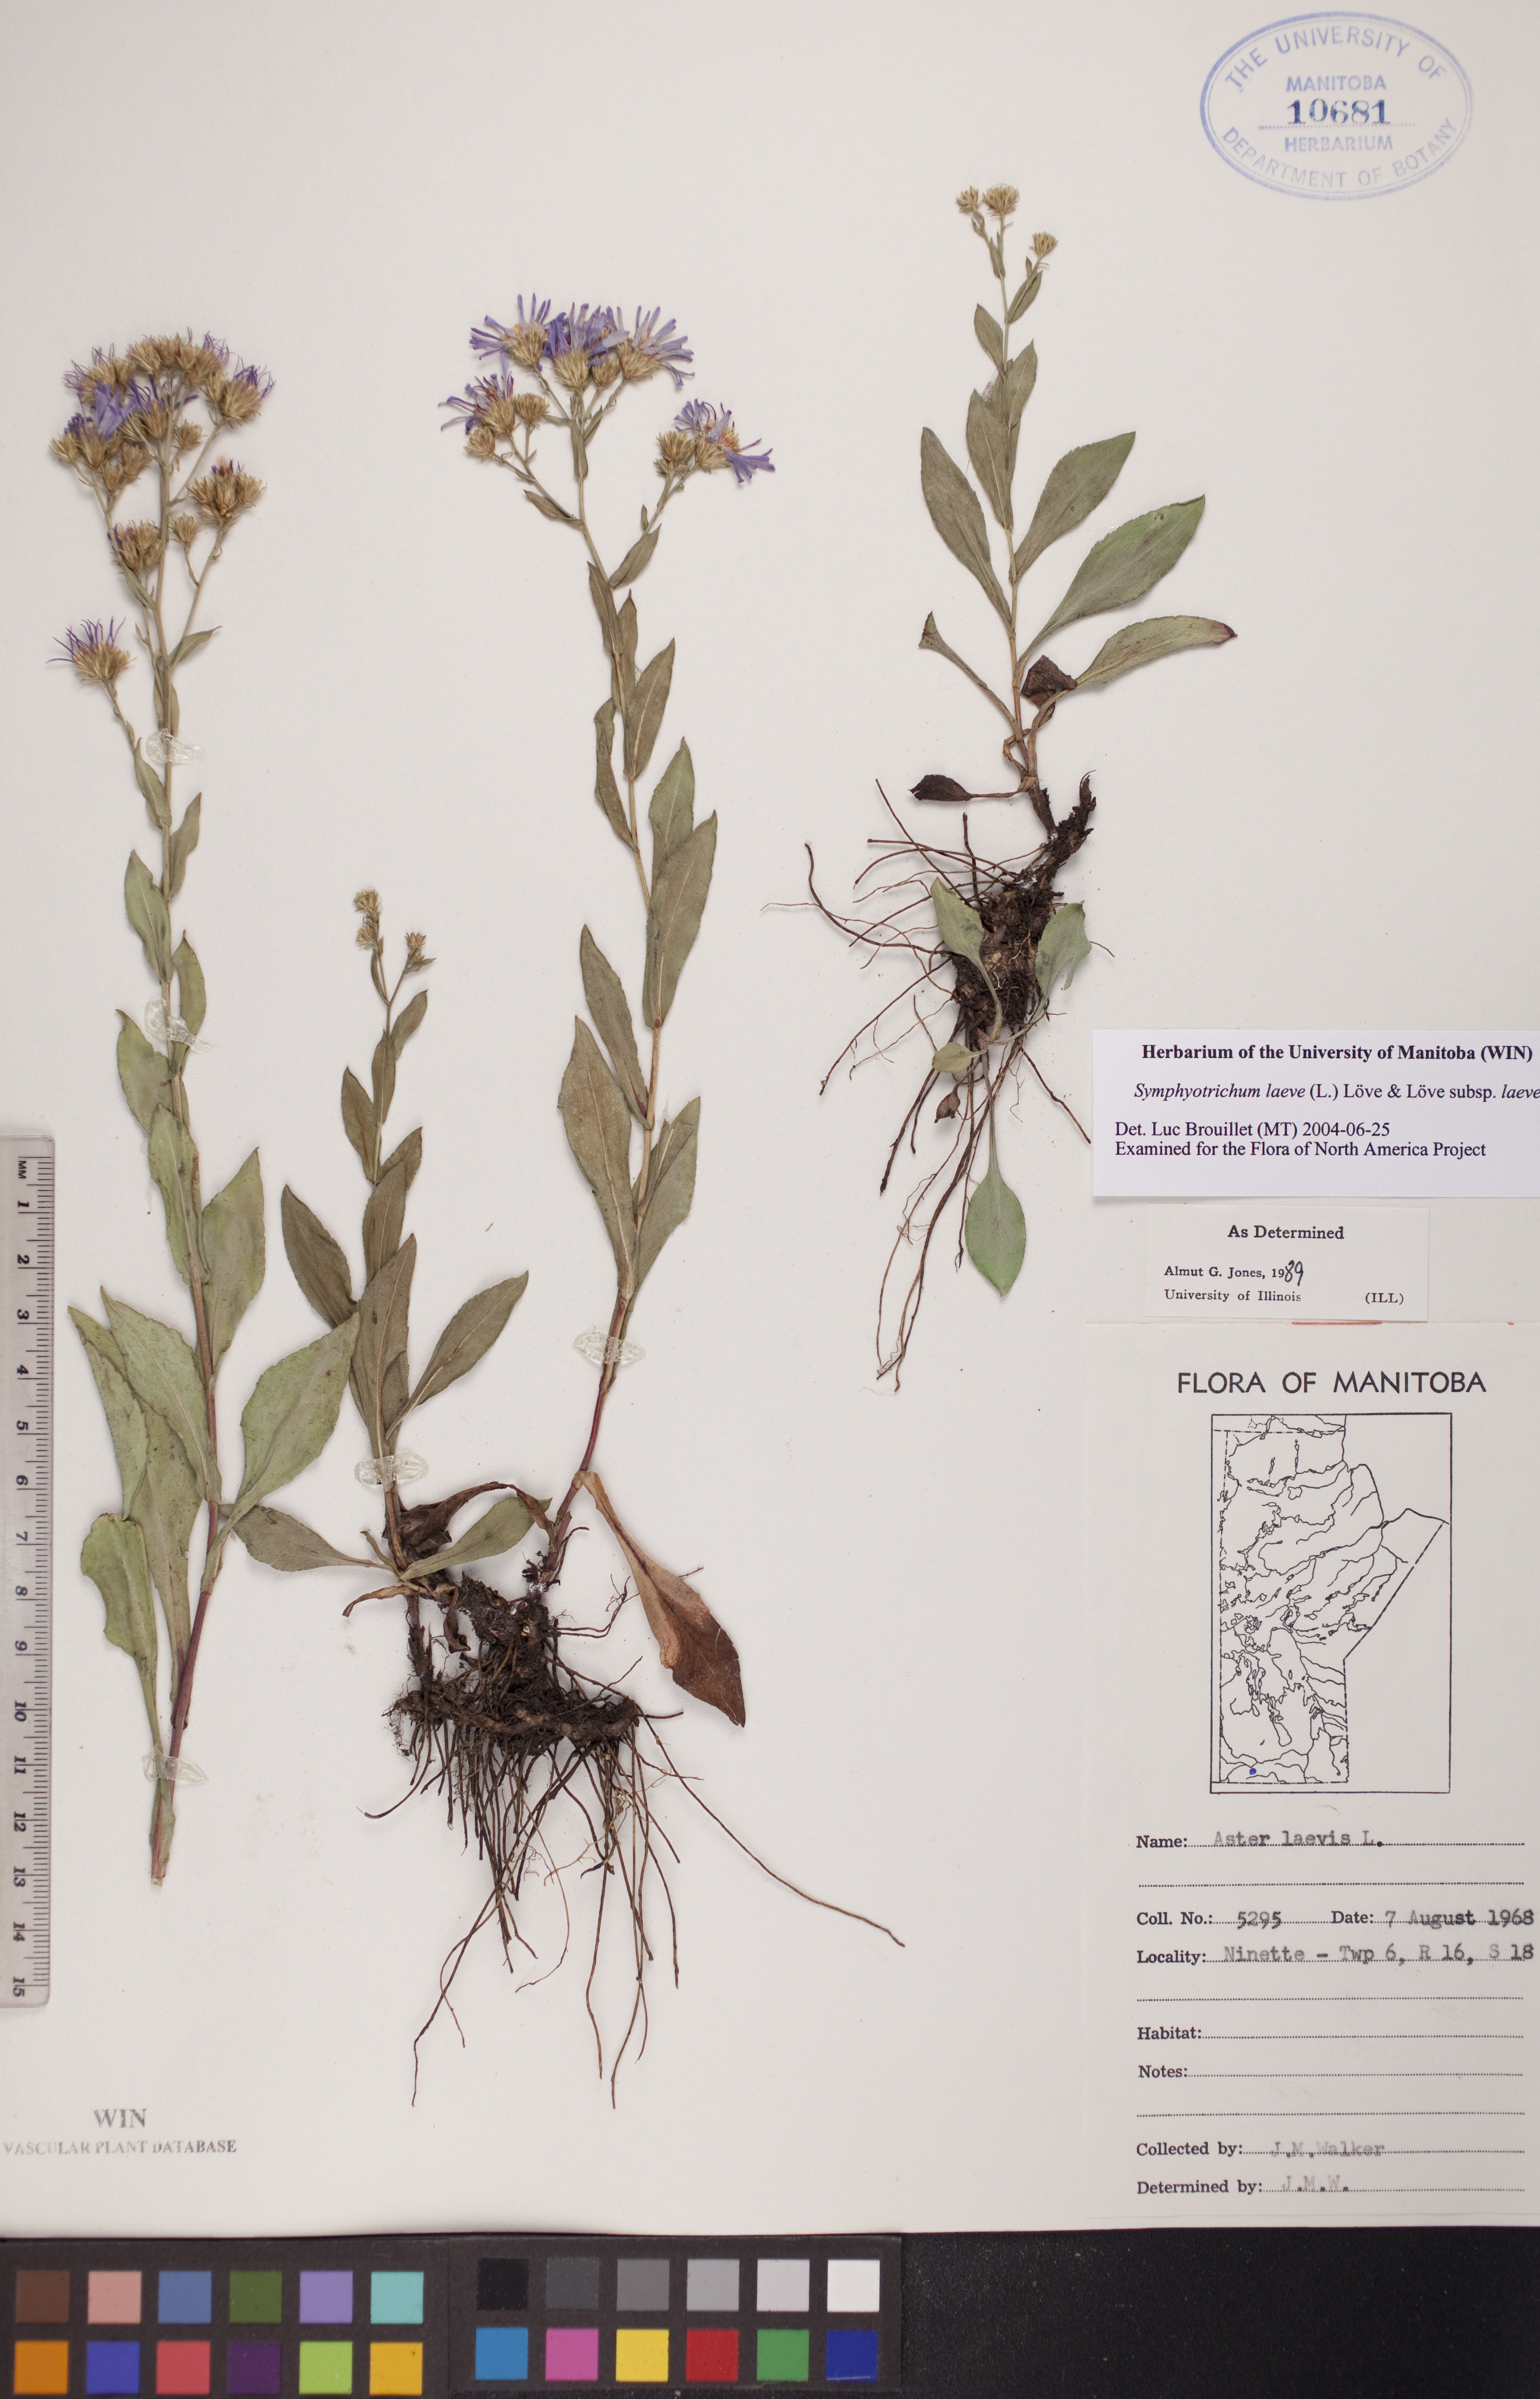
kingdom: Plantae
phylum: Tracheophyta
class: Magnoliopsida
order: Asterales
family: Asteraceae
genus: Symphyotrichum
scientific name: Symphyotrichum laeve
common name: Glaucous aster
